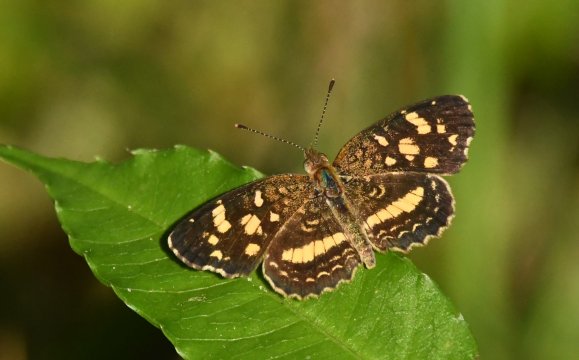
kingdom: Animalia
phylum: Arthropoda
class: Insecta
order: Lepidoptera
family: Nymphalidae
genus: Anthanassa
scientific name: Anthanassa tulcis
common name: Pale-banded Crescent
